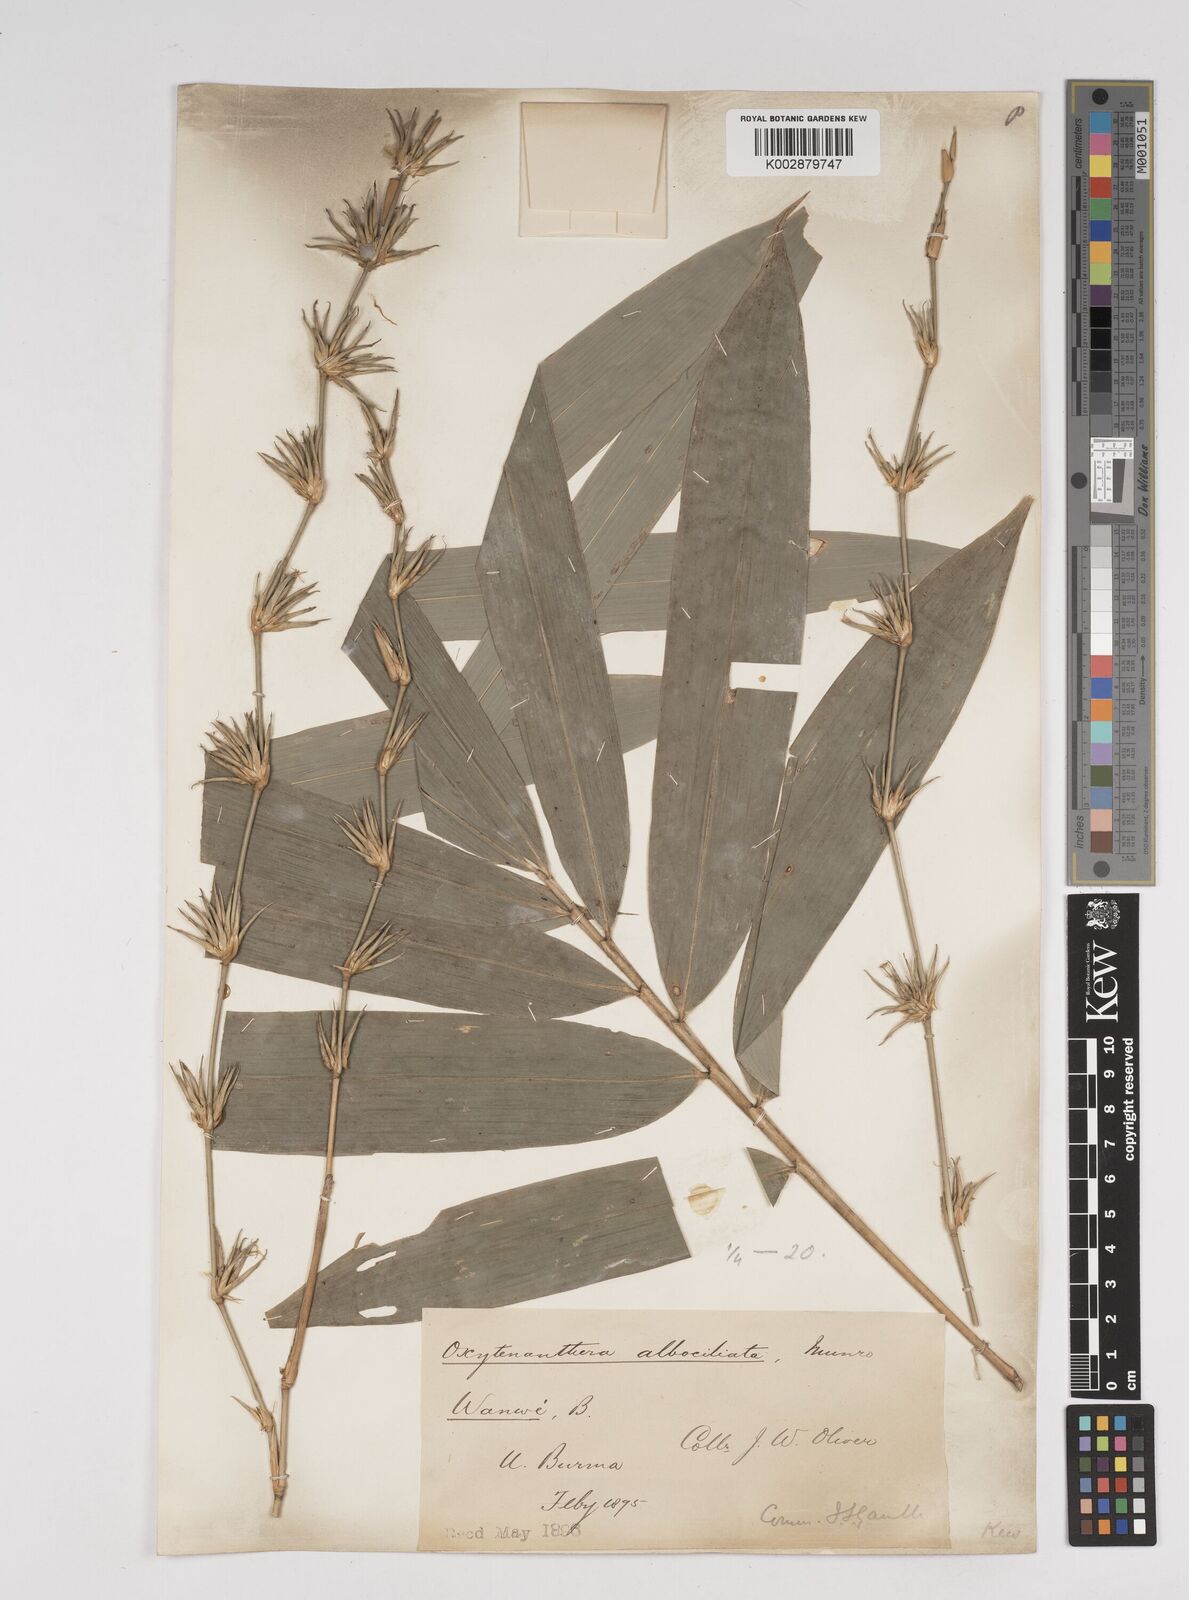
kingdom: Plantae
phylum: Tracheophyta
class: Liliopsida
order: Poales
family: Poaceae
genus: Gigantochloa
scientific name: Gigantochloa albociliata
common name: White-fringe gigantochloa
